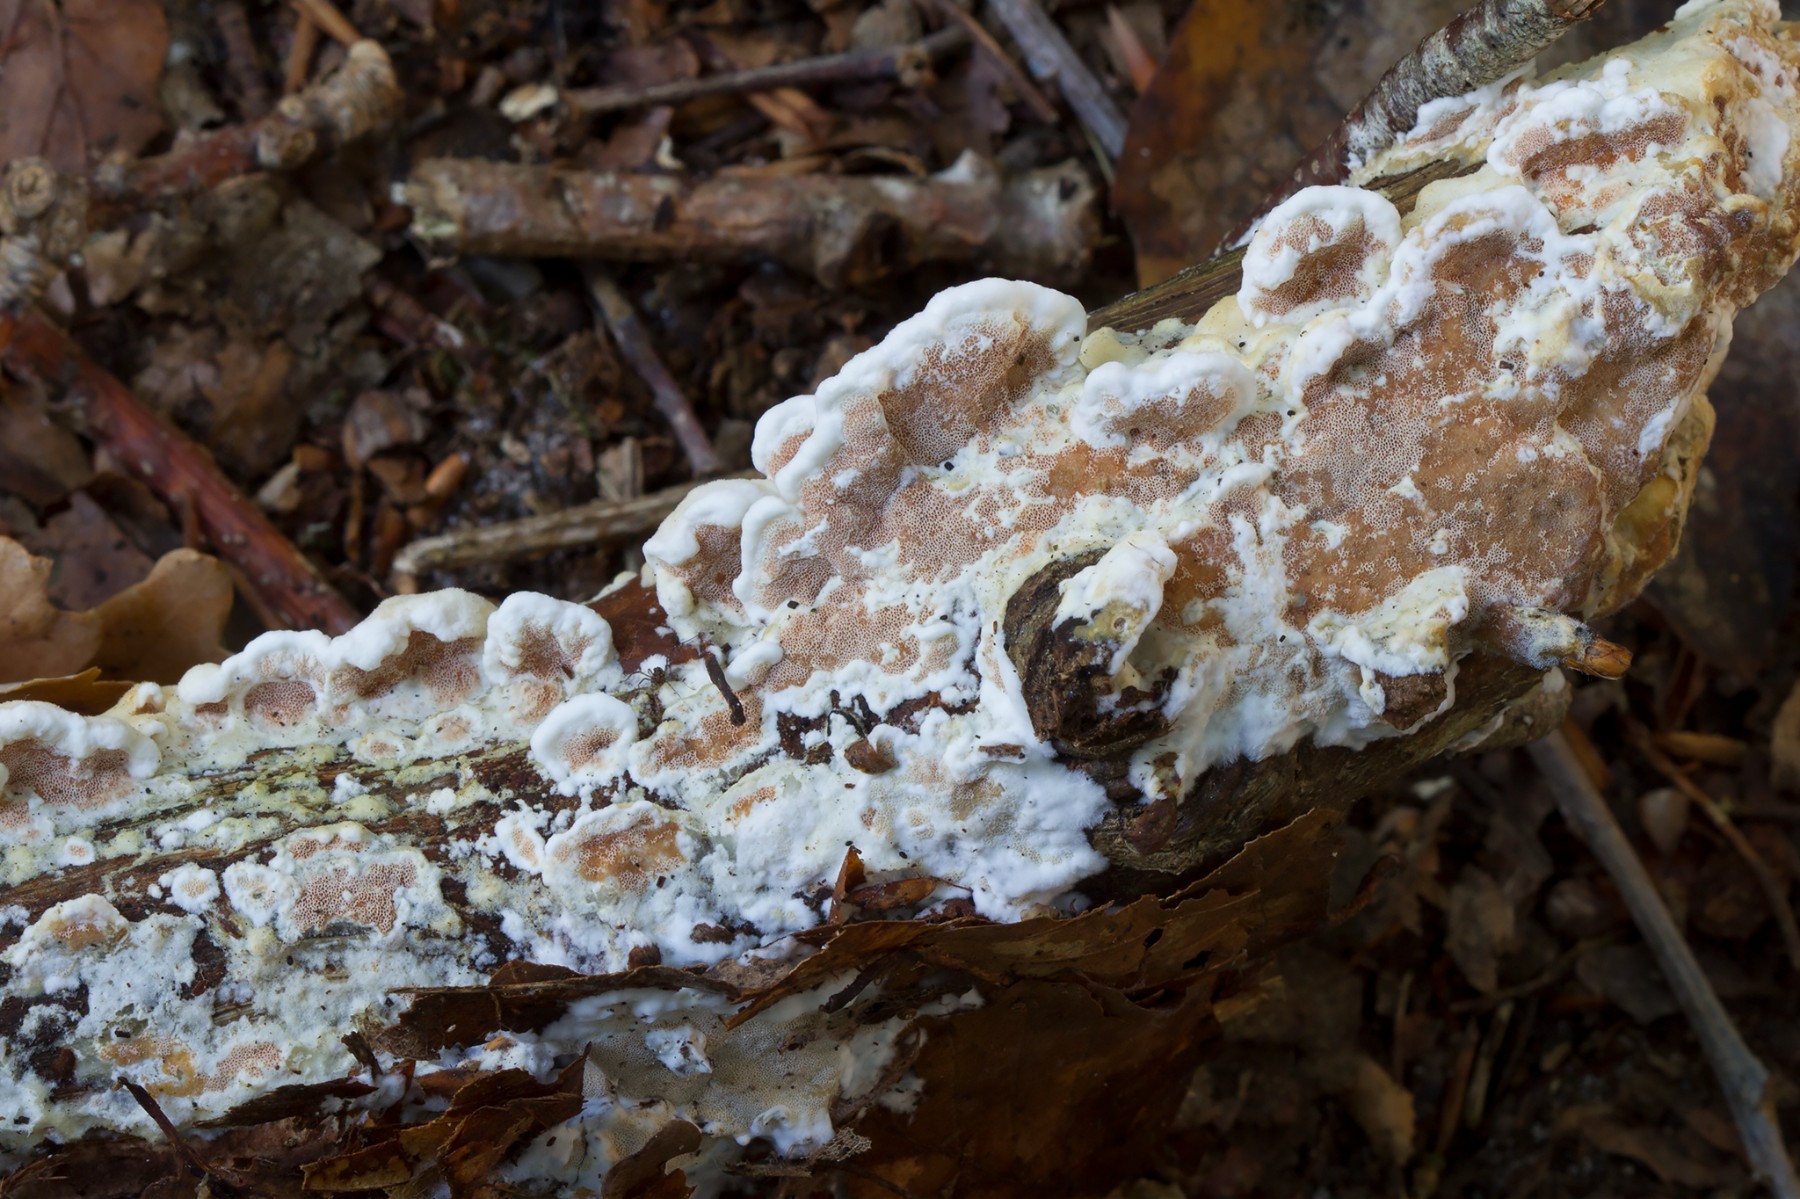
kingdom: Fungi
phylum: Basidiomycota
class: Agaricomycetes
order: Polyporales
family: Irpicaceae
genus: Vitreoporus
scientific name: Vitreoporus dichrous
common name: tofarvet foldporesvamp
